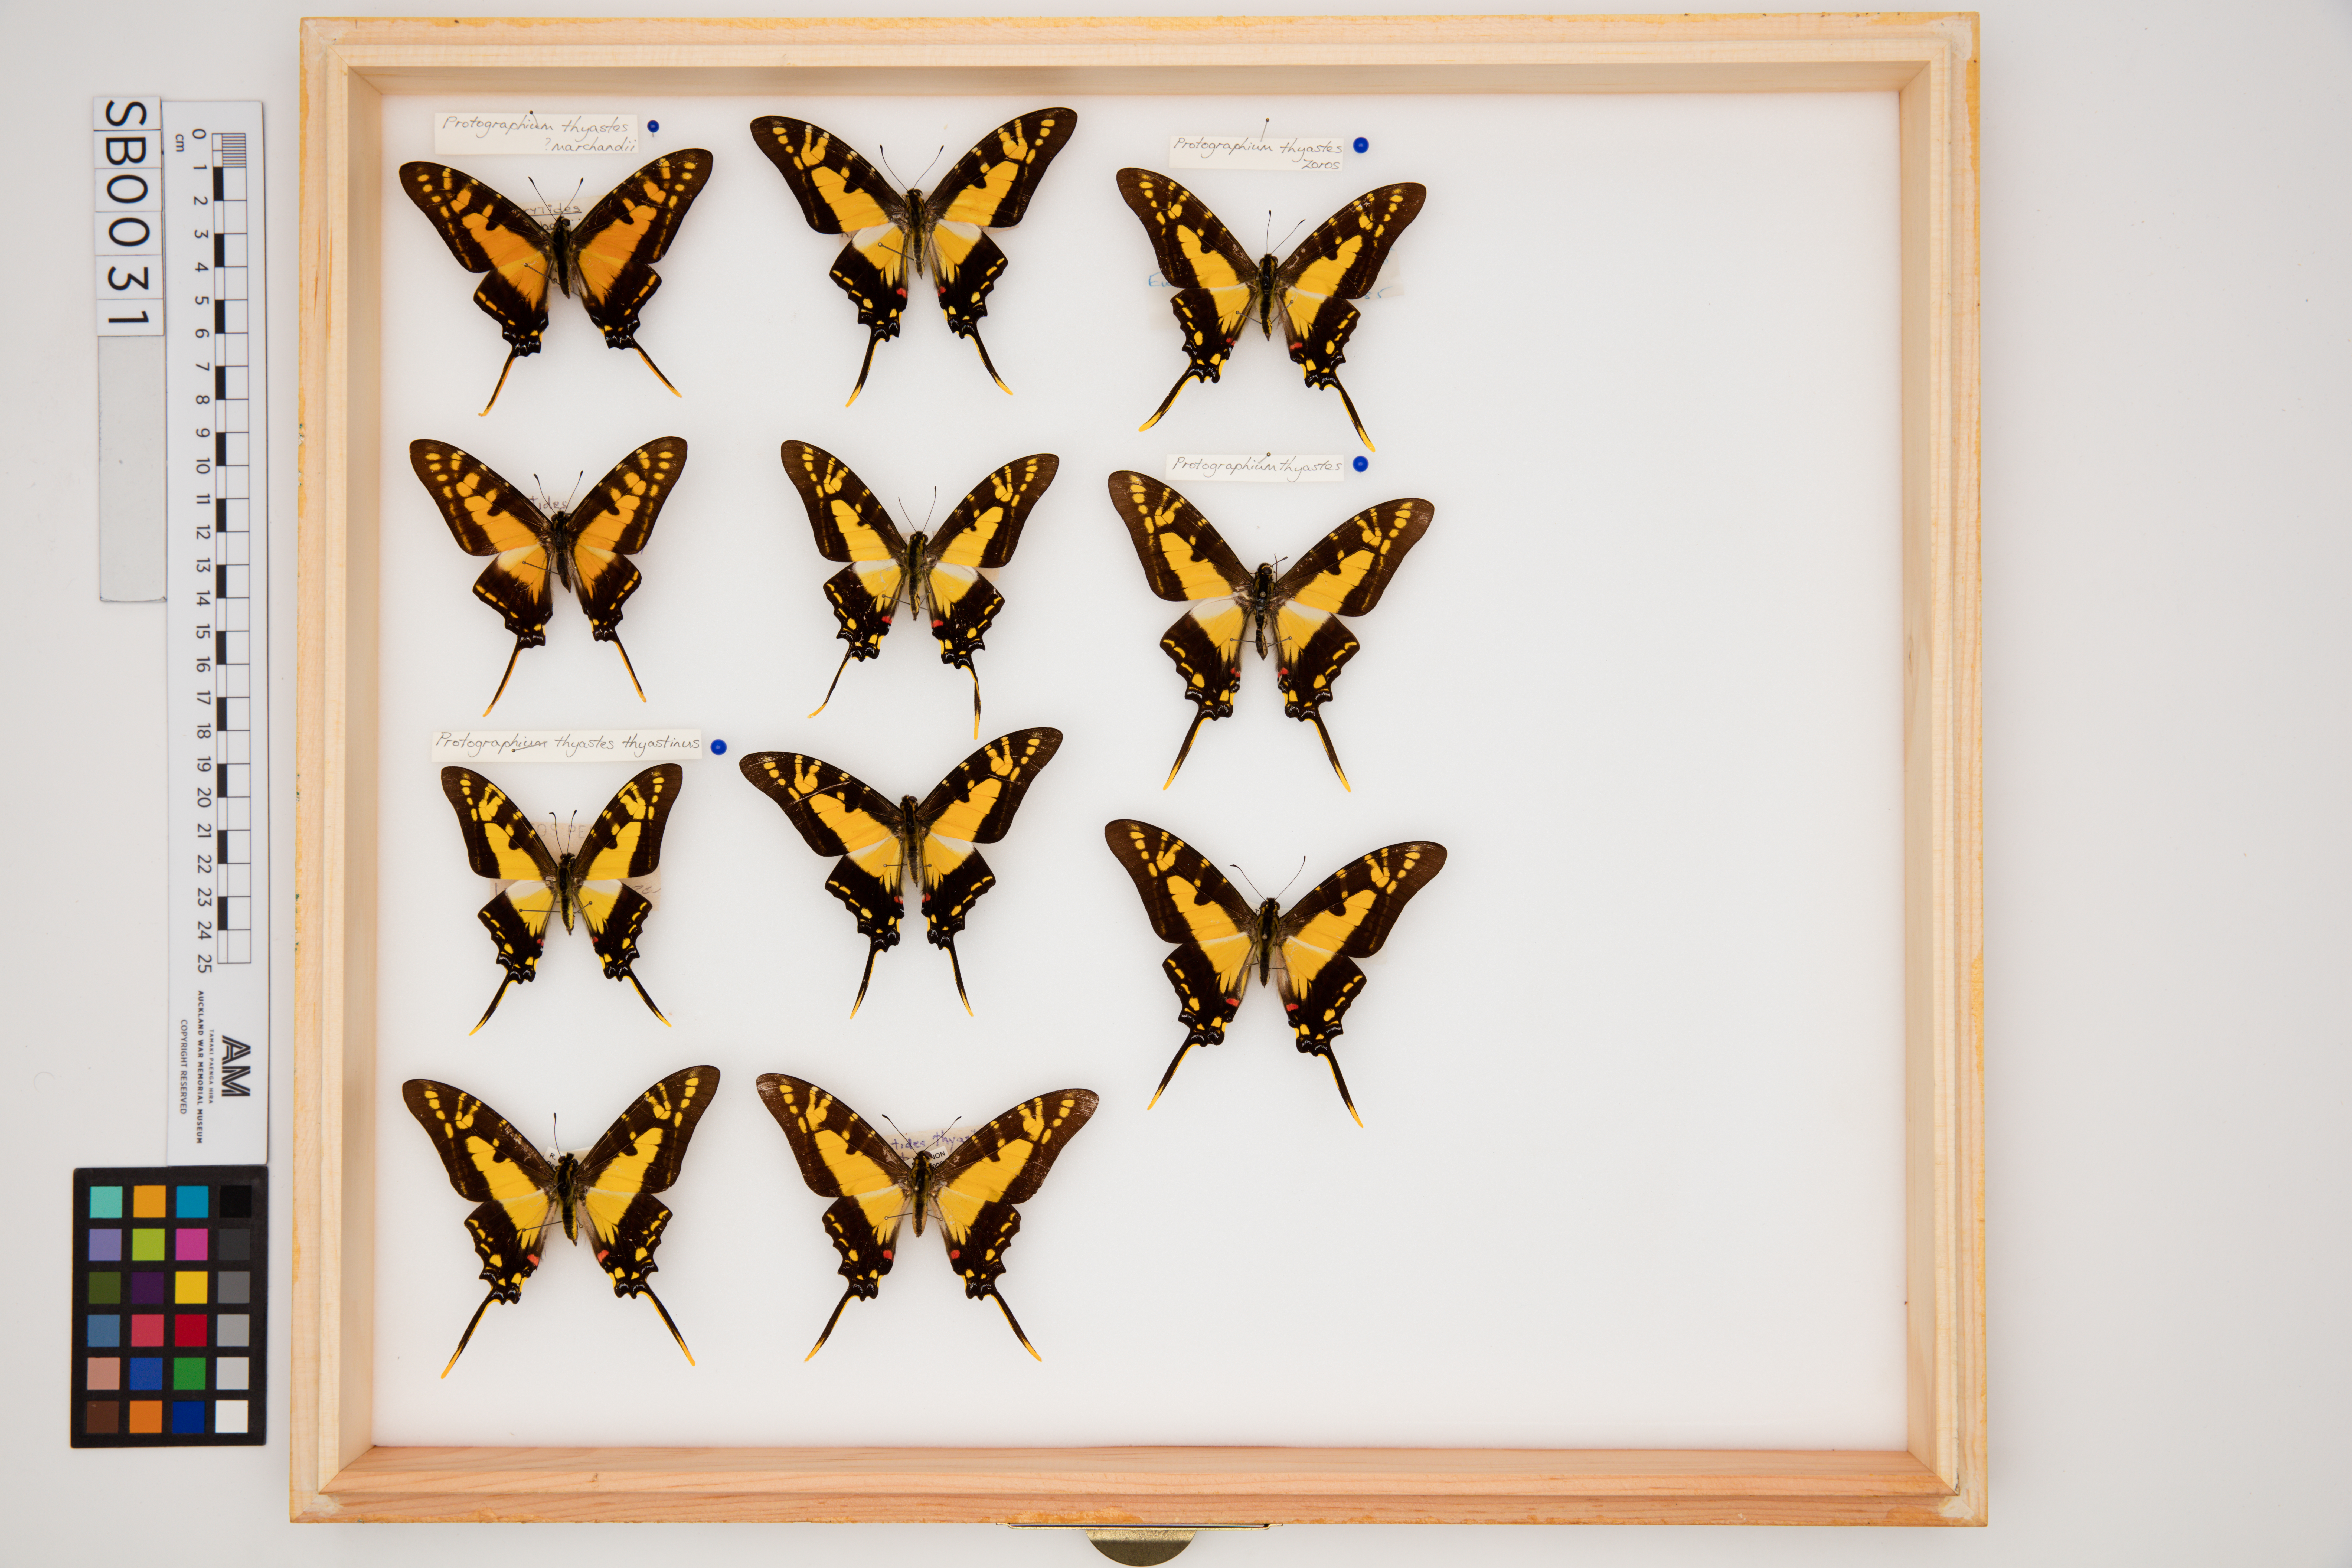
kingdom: Animalia
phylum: Arthropoda
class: Insecta
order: Lepidoptera
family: Papilionidae
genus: Protographium
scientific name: Protographium thyastes
